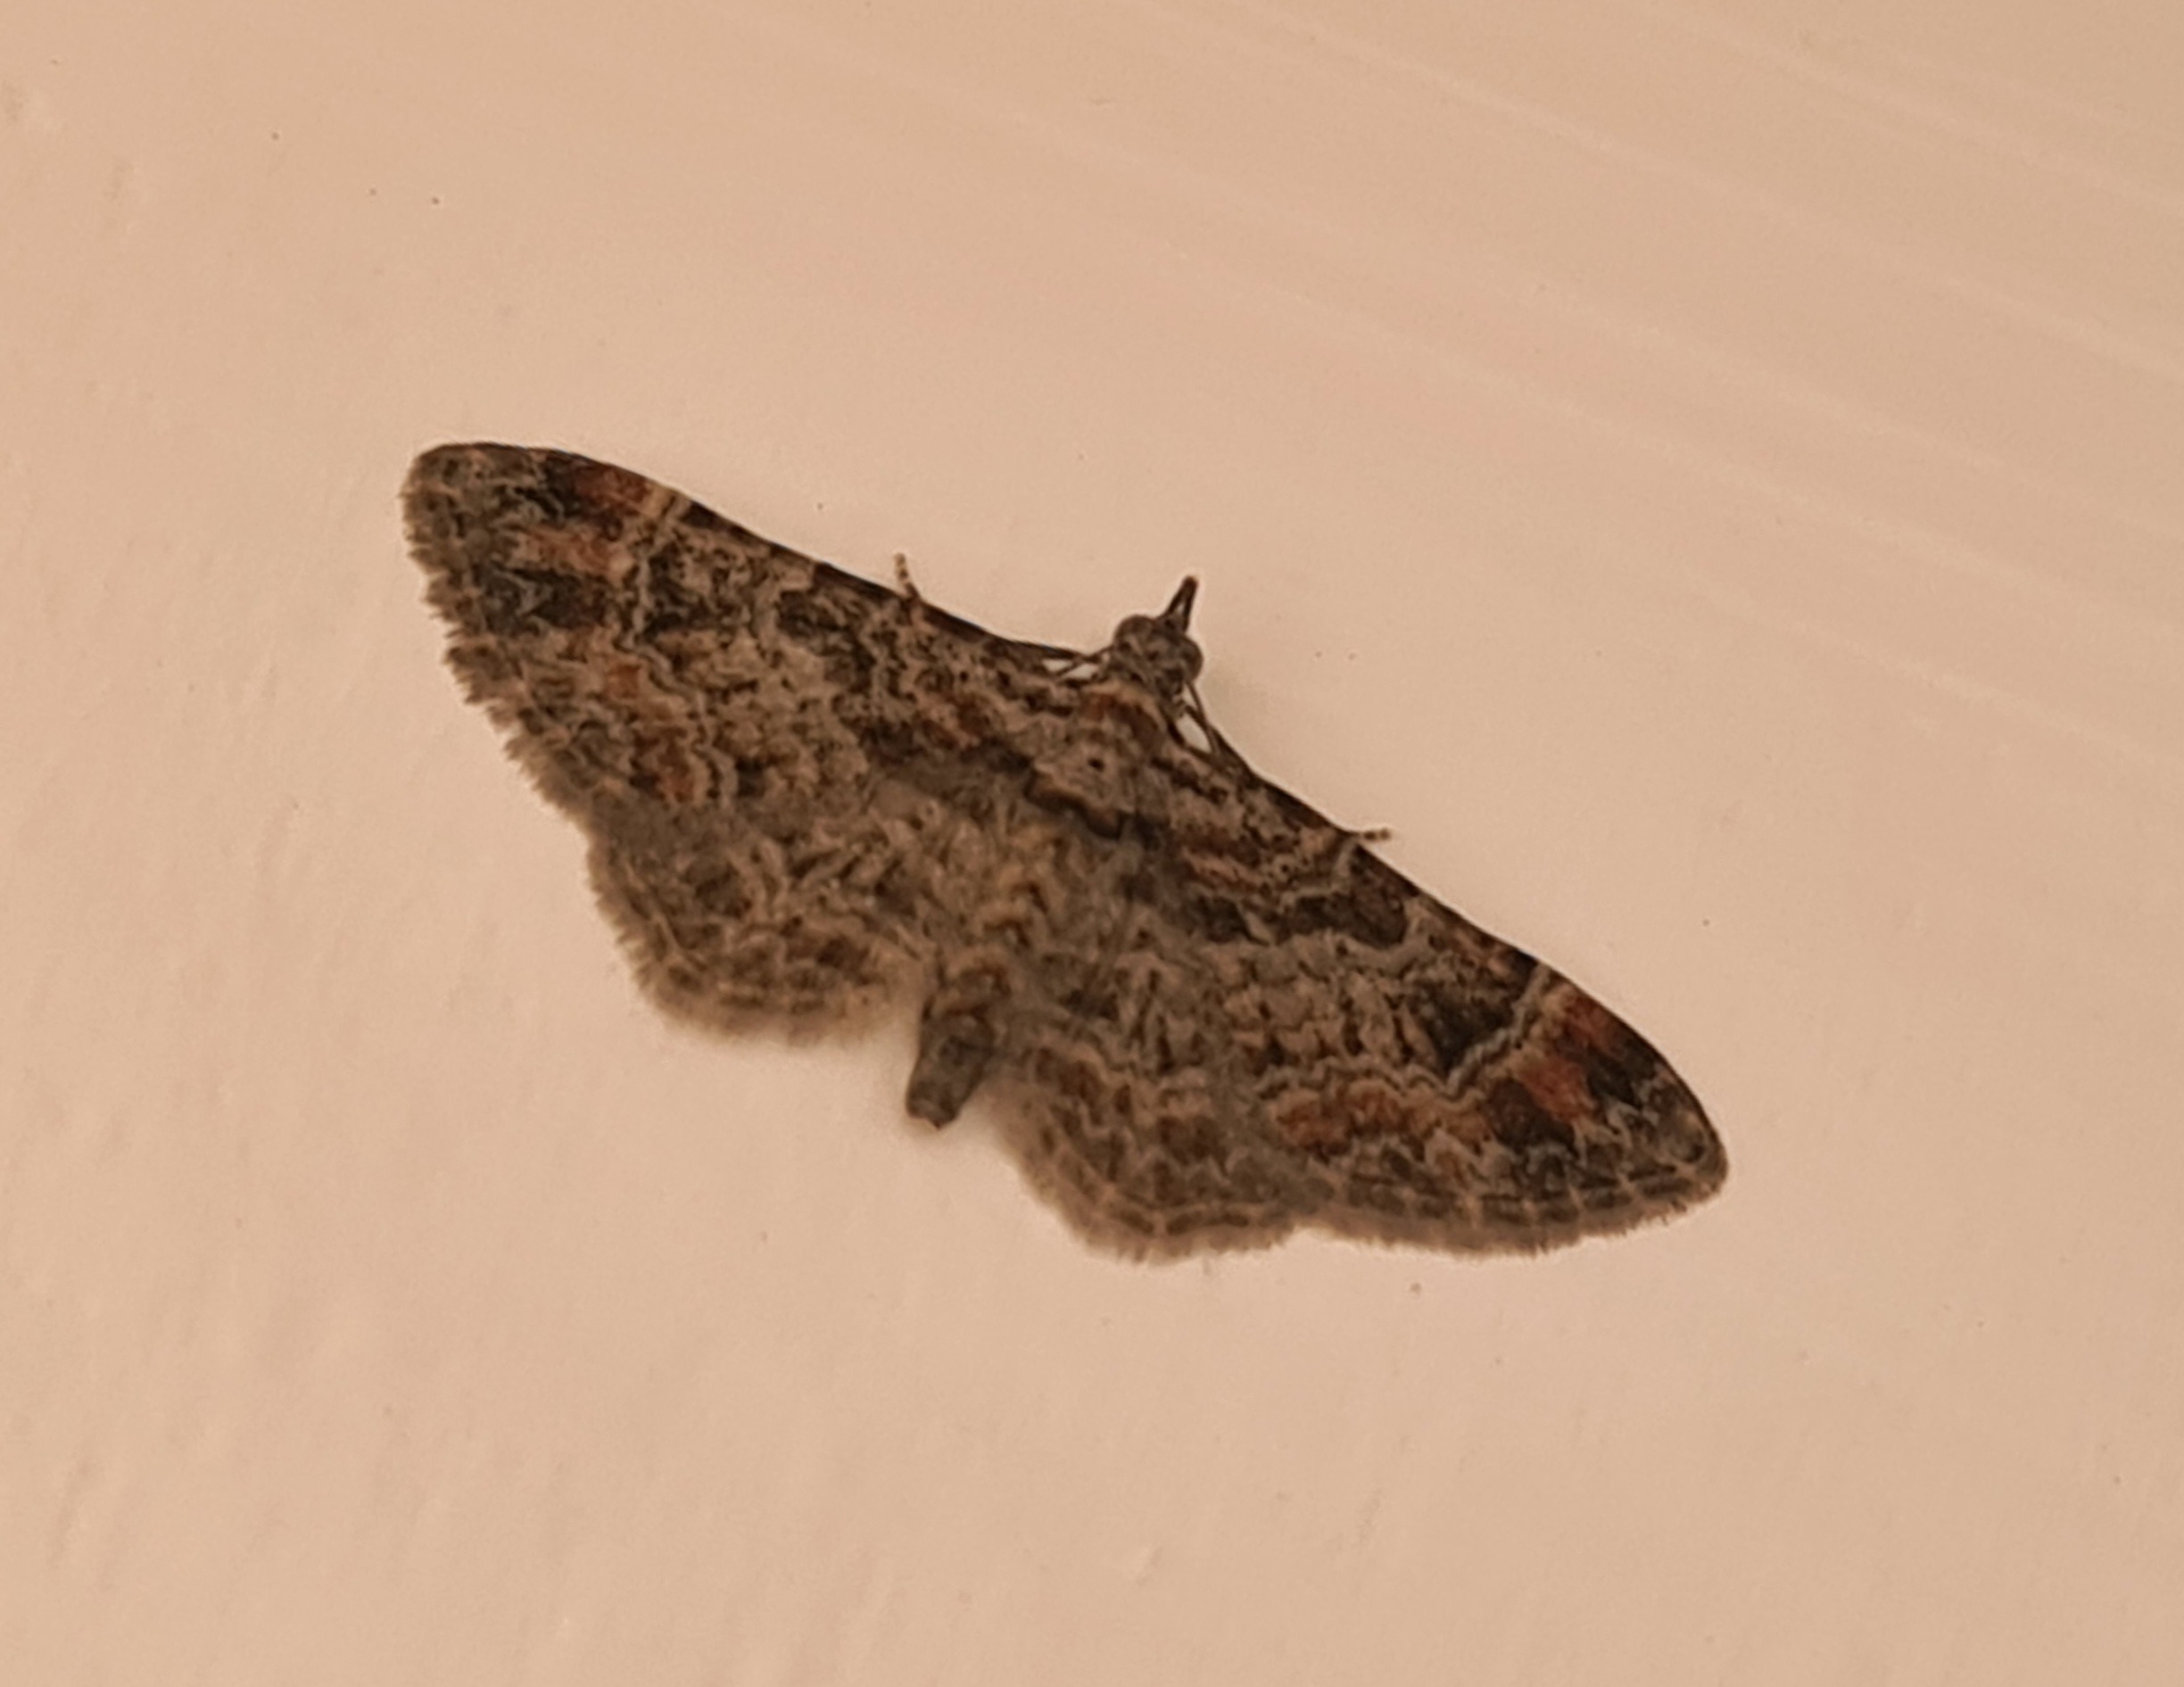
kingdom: Animalia
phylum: Arthropoda
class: Insecta
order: Lepidoptera
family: Geometridae
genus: Gymnoscelis
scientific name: Gymnoscelis rufifasciata
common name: Rødbåndet dværgmåler
